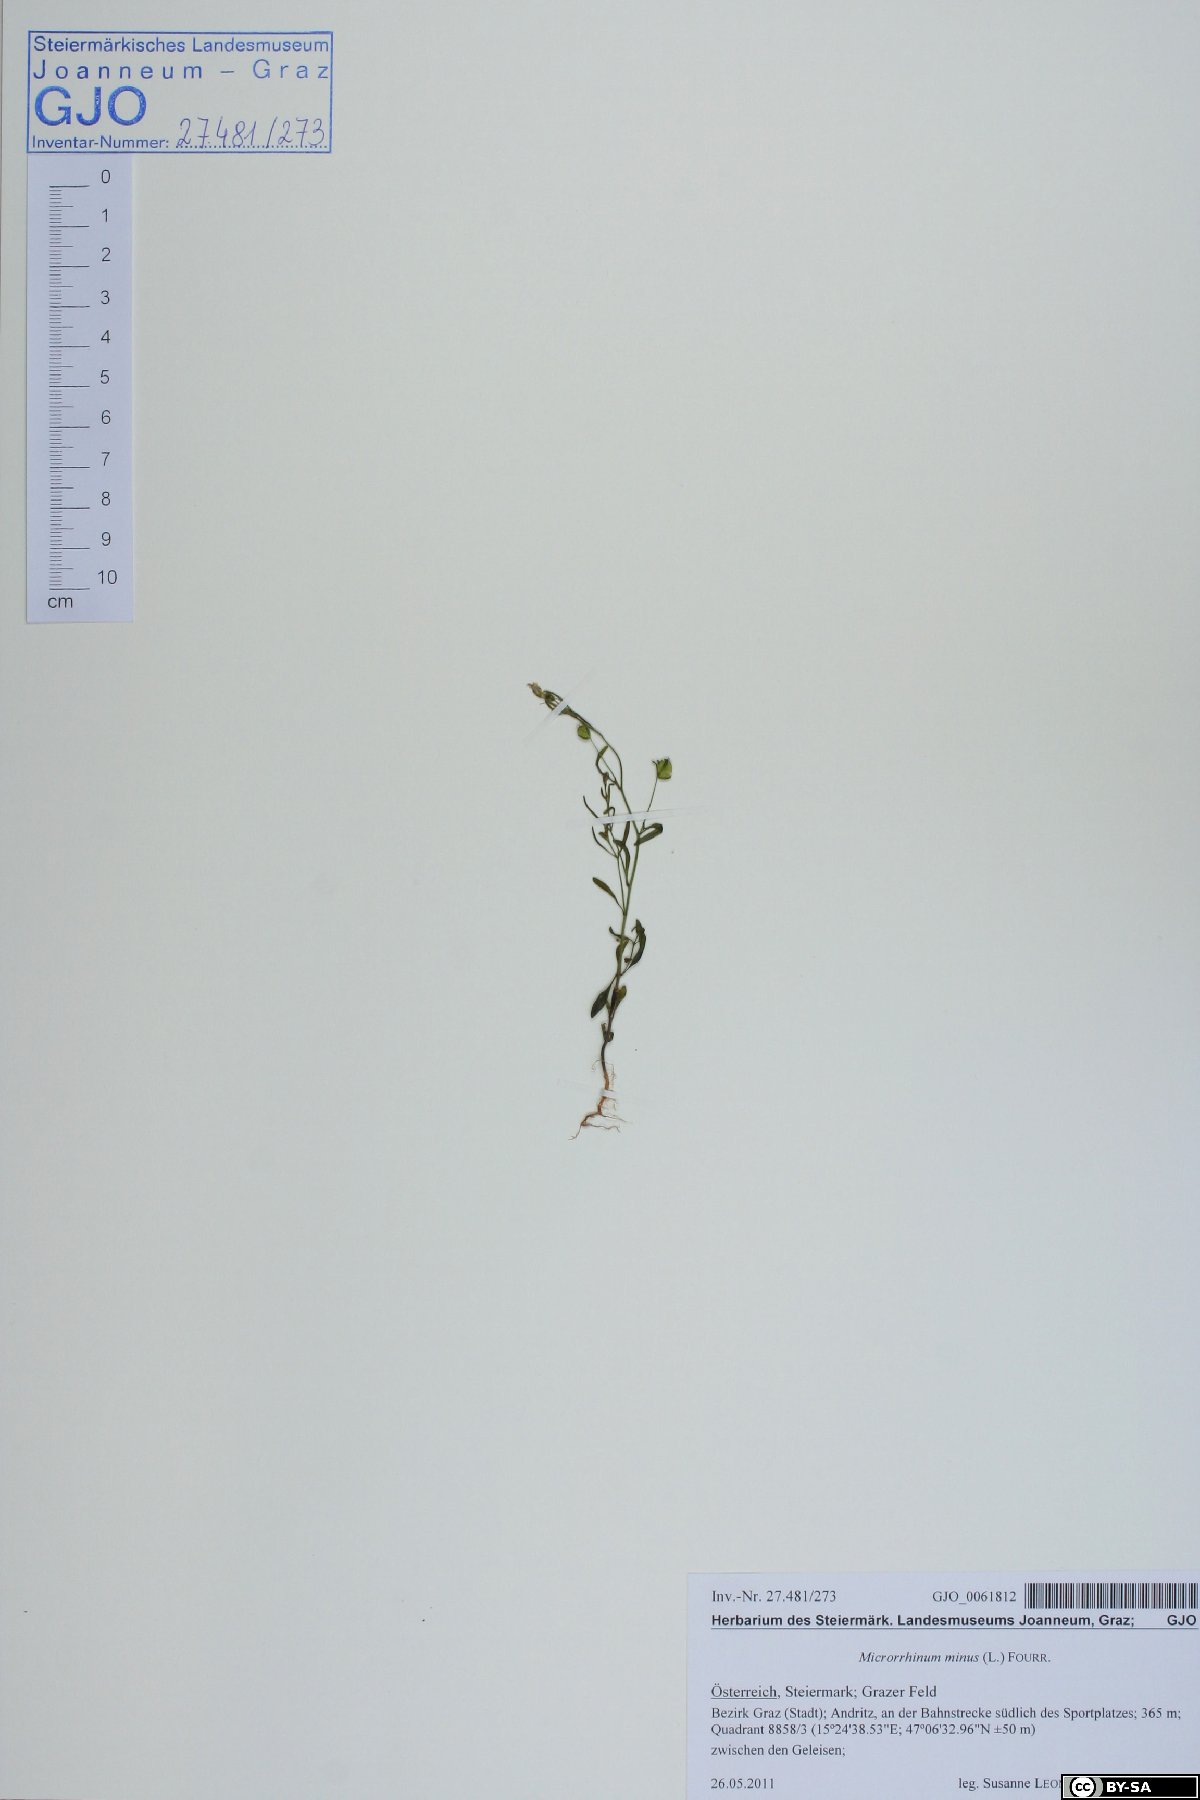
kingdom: Plantae
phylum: Tracheophyta
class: Magnoliopsida
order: Lamiales
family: Plantaginaceae
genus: Chaenorhinum
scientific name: Chaenorhinum minus
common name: Dwarf snapdragon
